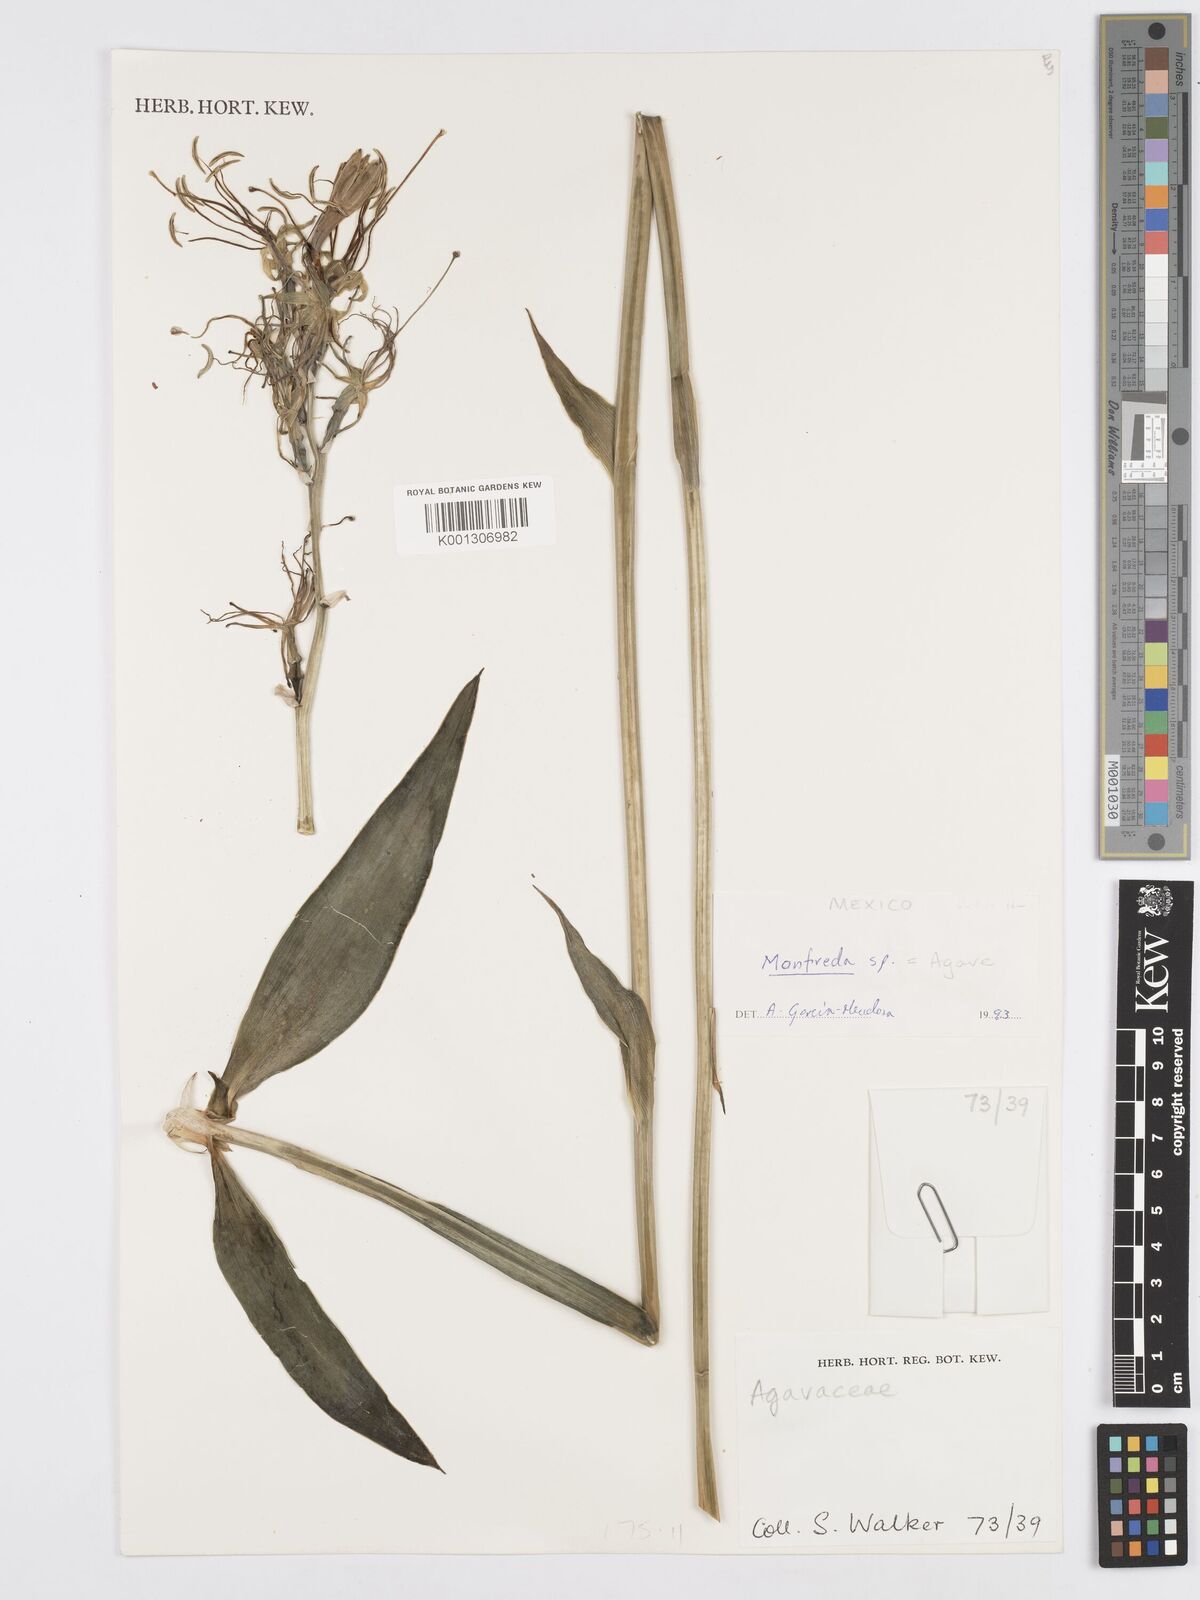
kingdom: Plantae
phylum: Tracheophyta
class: Liliopsida
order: Asparagales
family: Asparagaceae
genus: Agave
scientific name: Agave Manfreda spec
